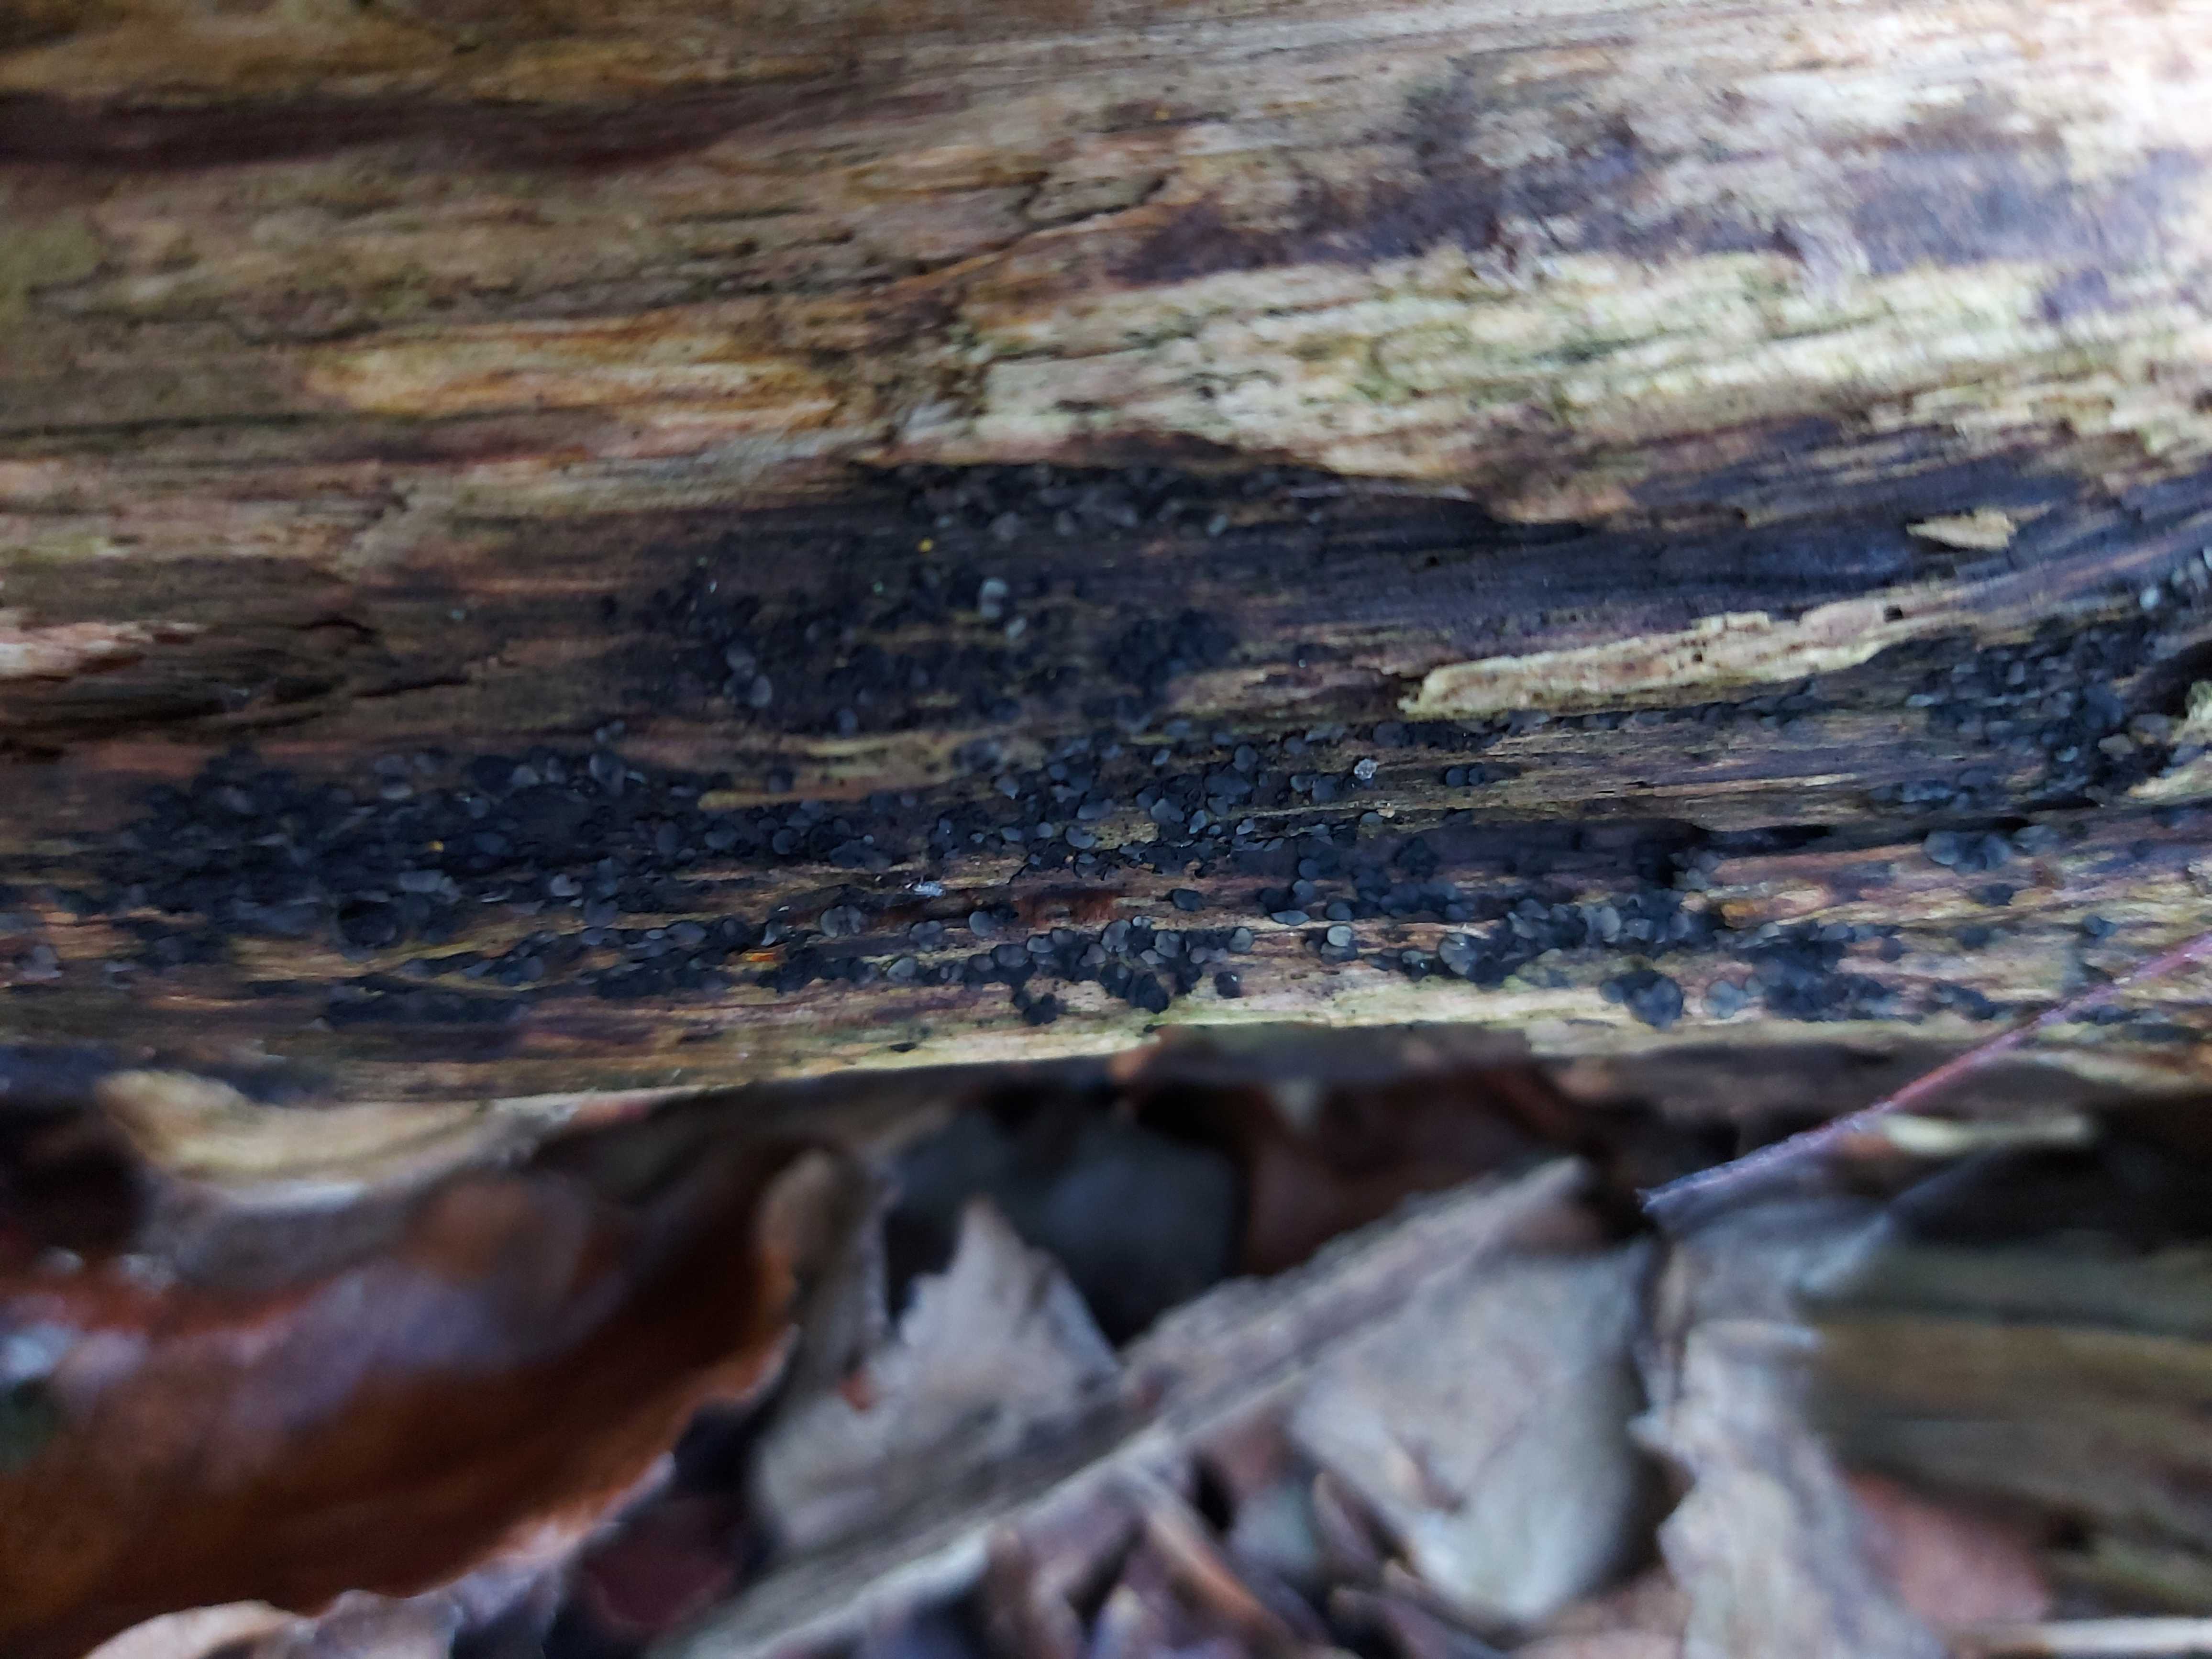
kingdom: Fungi
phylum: Ascomycota
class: Leotiomycetes
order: Helotiales
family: Mollisiaceae
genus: Mollisia
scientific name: Mollisia
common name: gråskive
